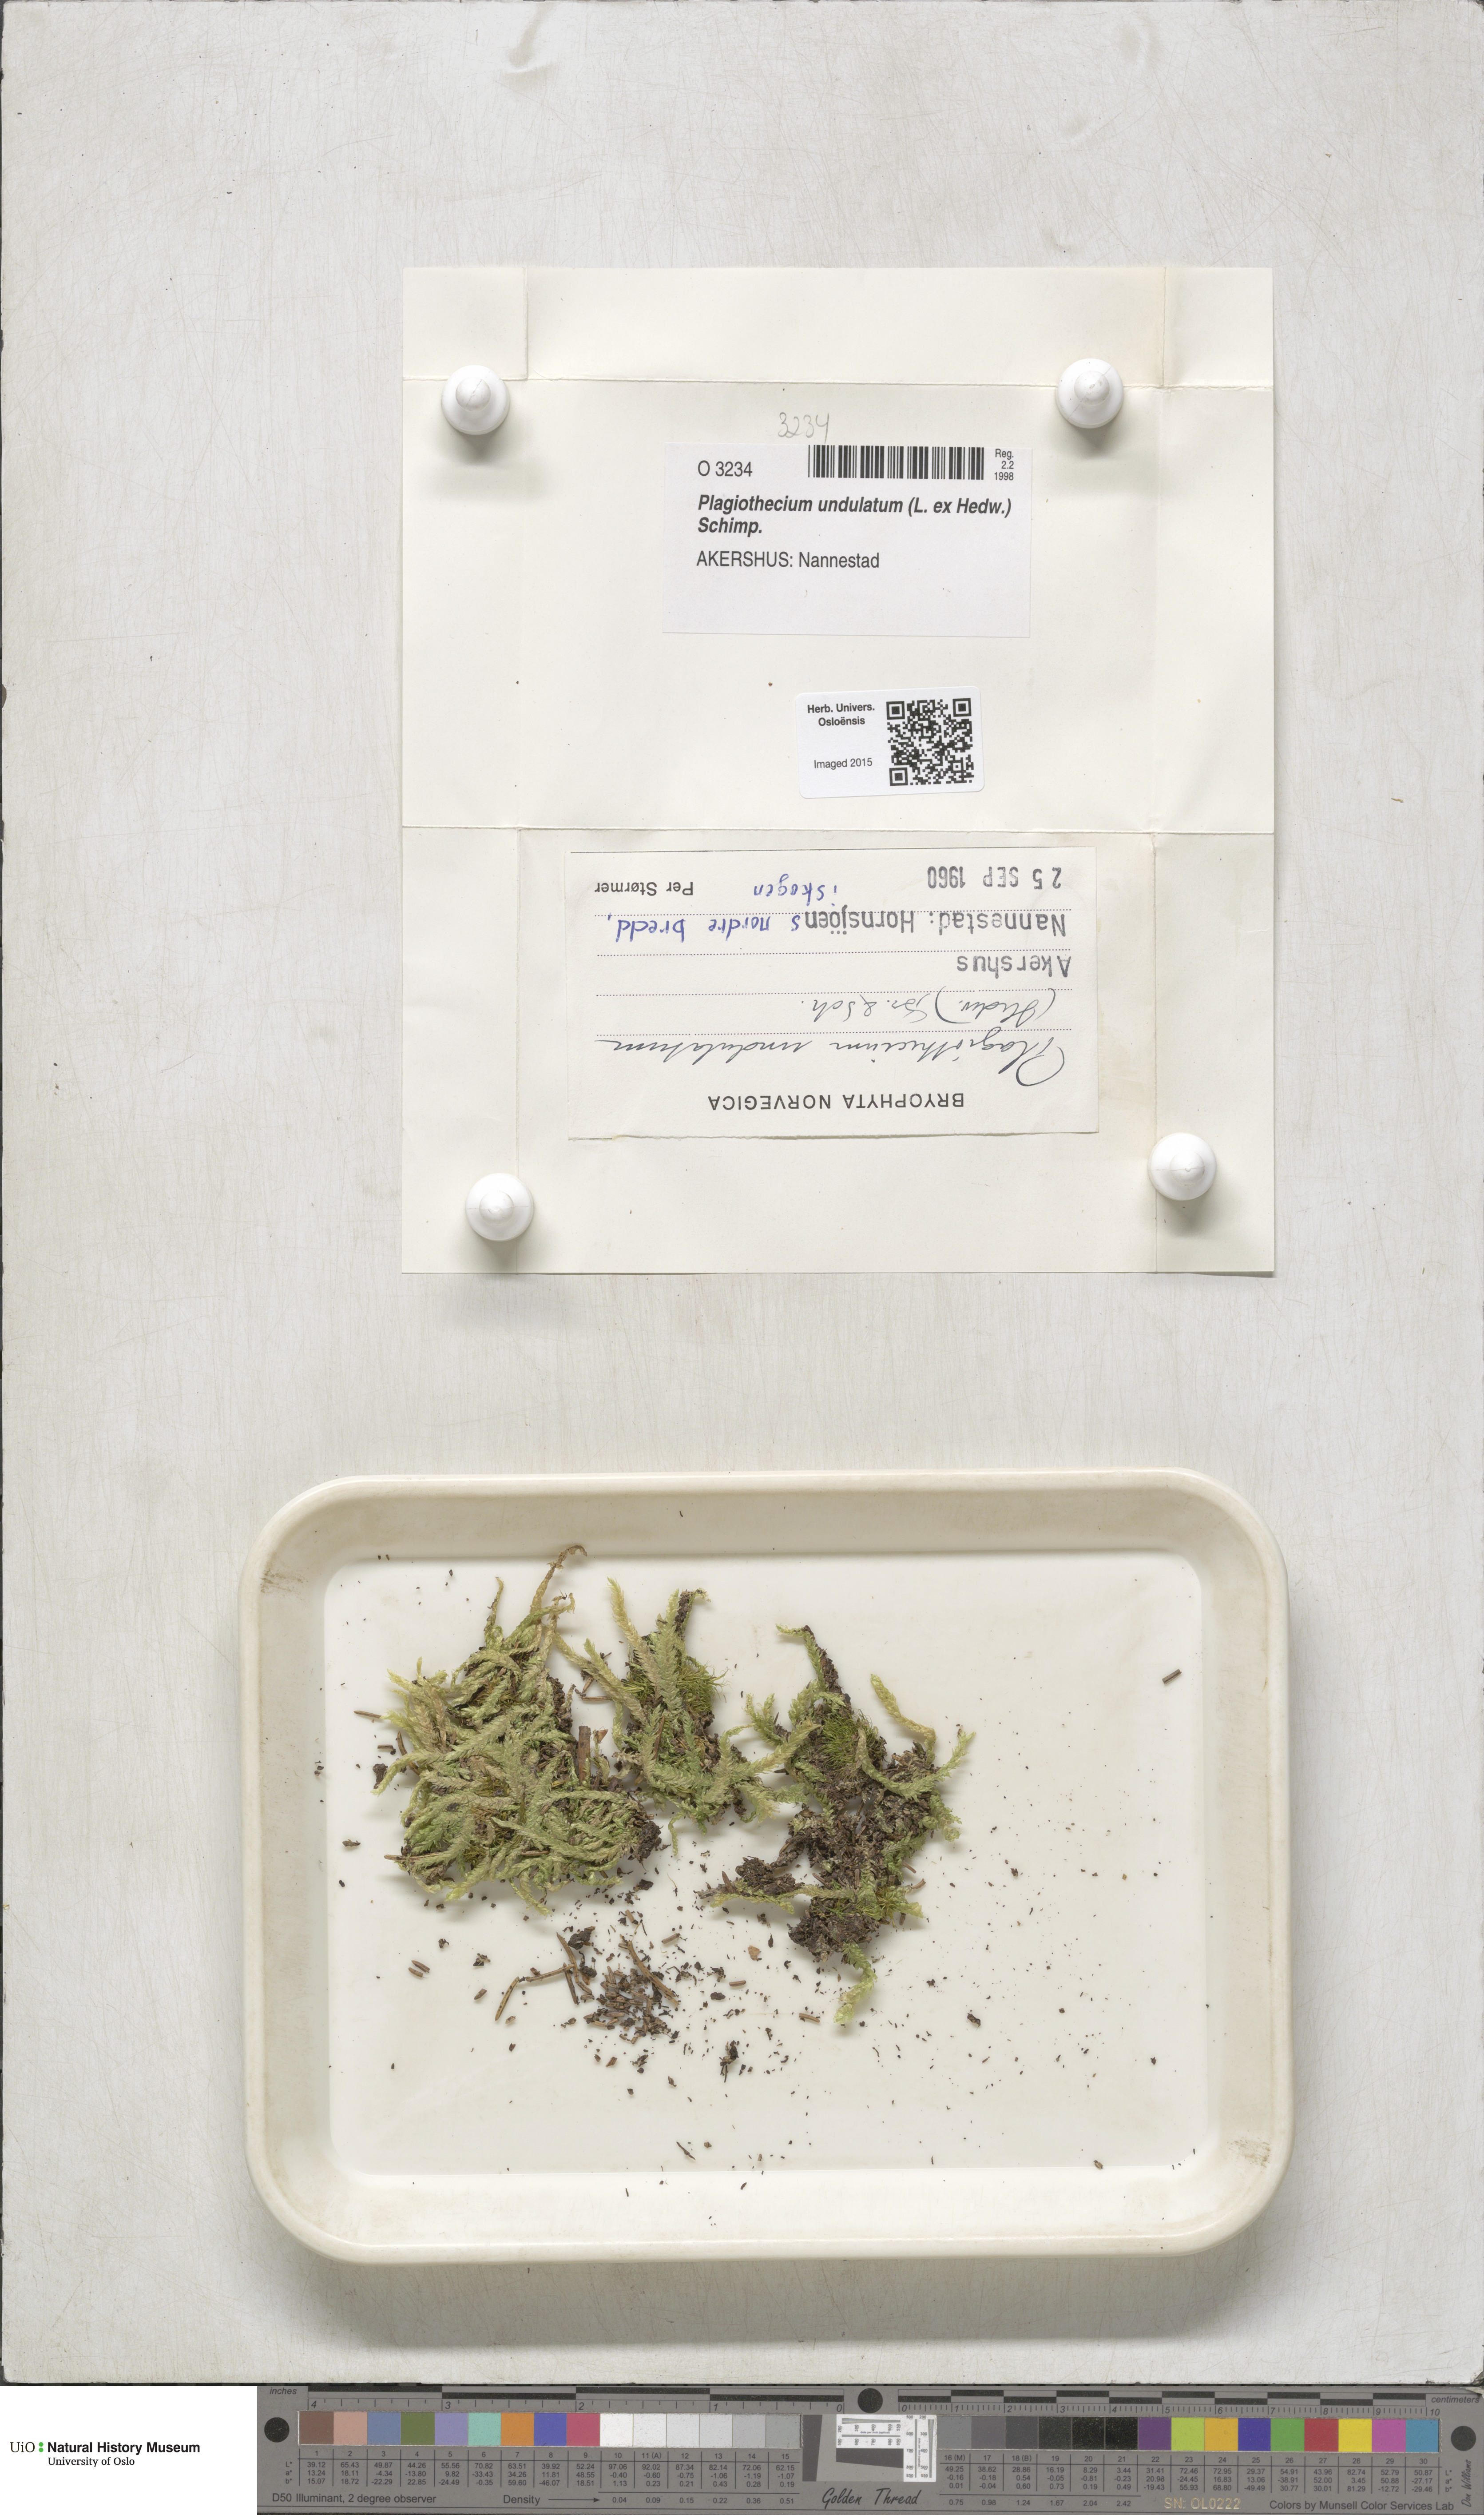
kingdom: Plantae
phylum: Bryophyta
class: Bryopsida
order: Hypnales
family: Plagiotheciaceae
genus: Plagiothecium
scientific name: Plagiothecium undulatum
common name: Waved silk-moss
